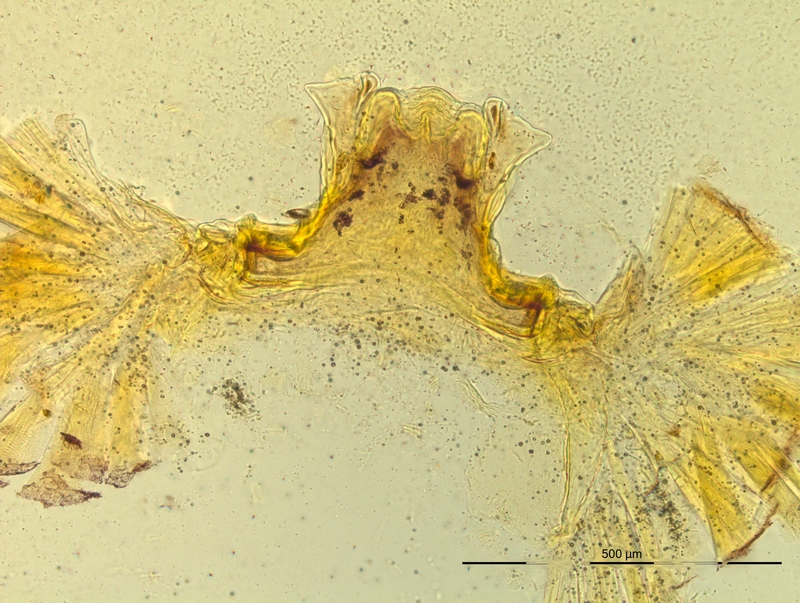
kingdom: Animalia
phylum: Arthropoda
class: Diplopoda
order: Chordeumatida
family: Craspedosomatidae
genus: Pyrgocyphosoma
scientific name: Pyrgocyphosoma titianum
